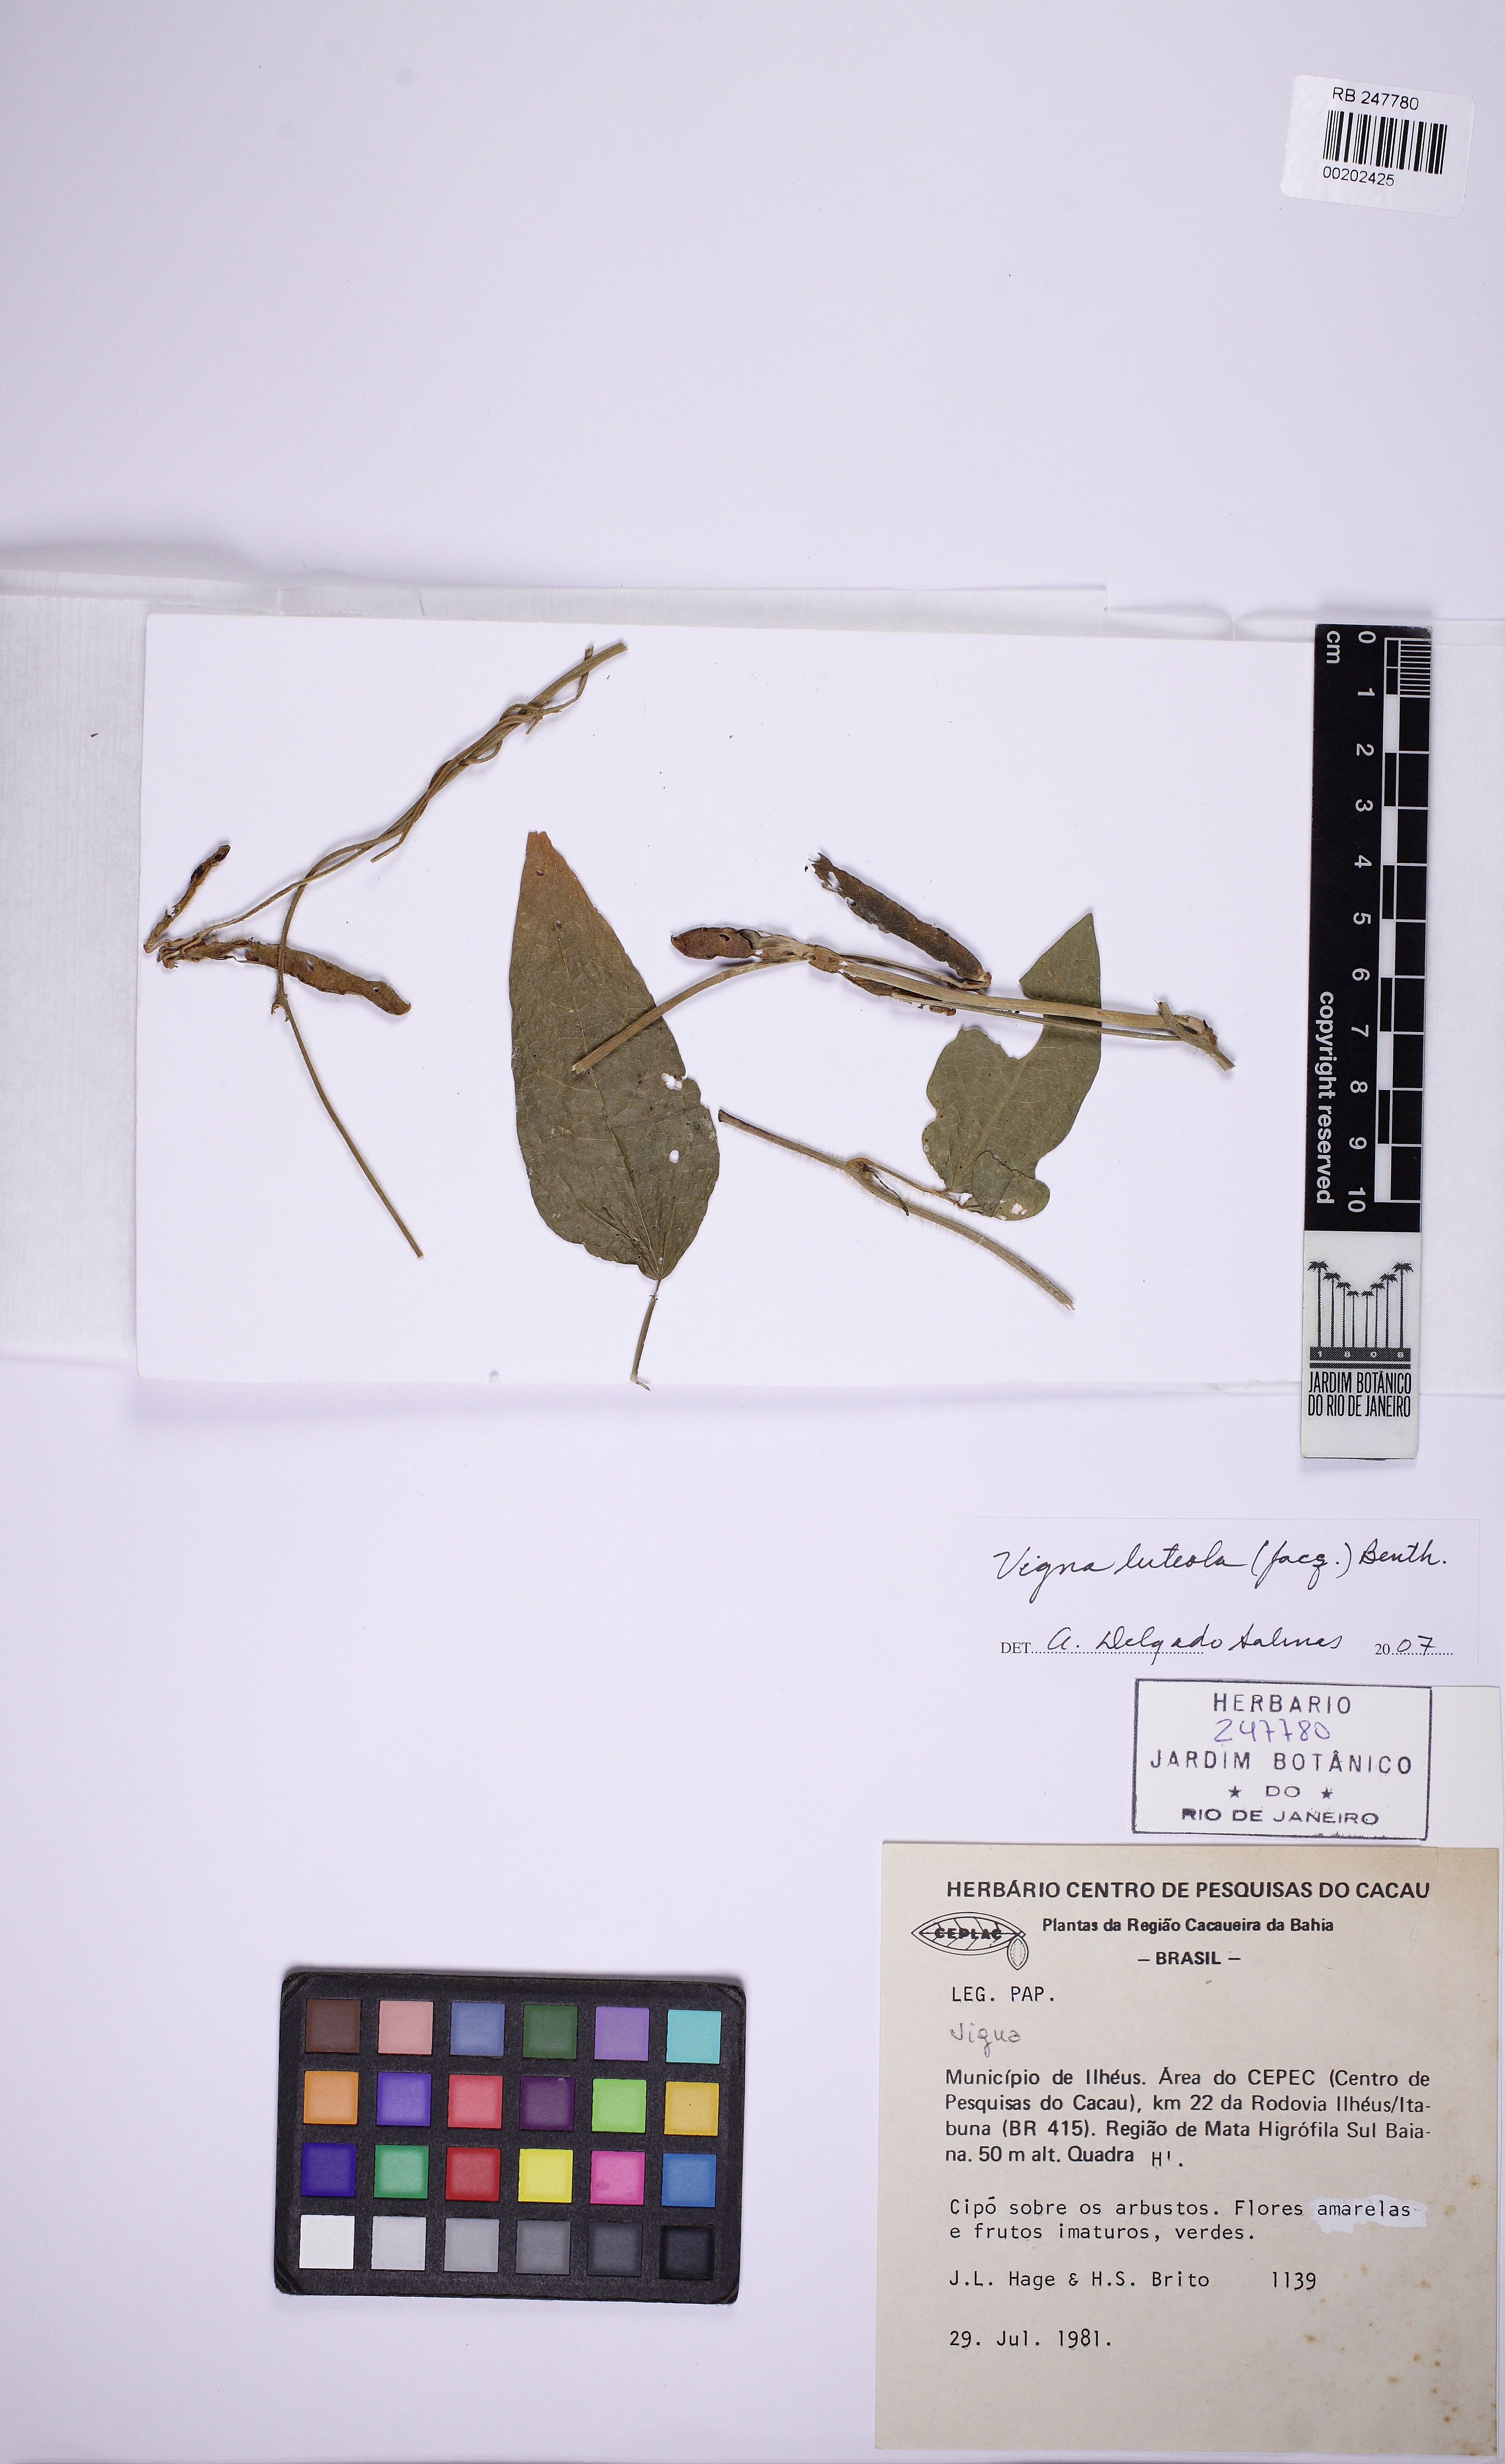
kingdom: Plantae
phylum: Tracheophyta
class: Magnoliopsida
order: Fabales
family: Fabaceae
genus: Vigna
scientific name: Vigna luteola
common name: Hairypod cowpea
